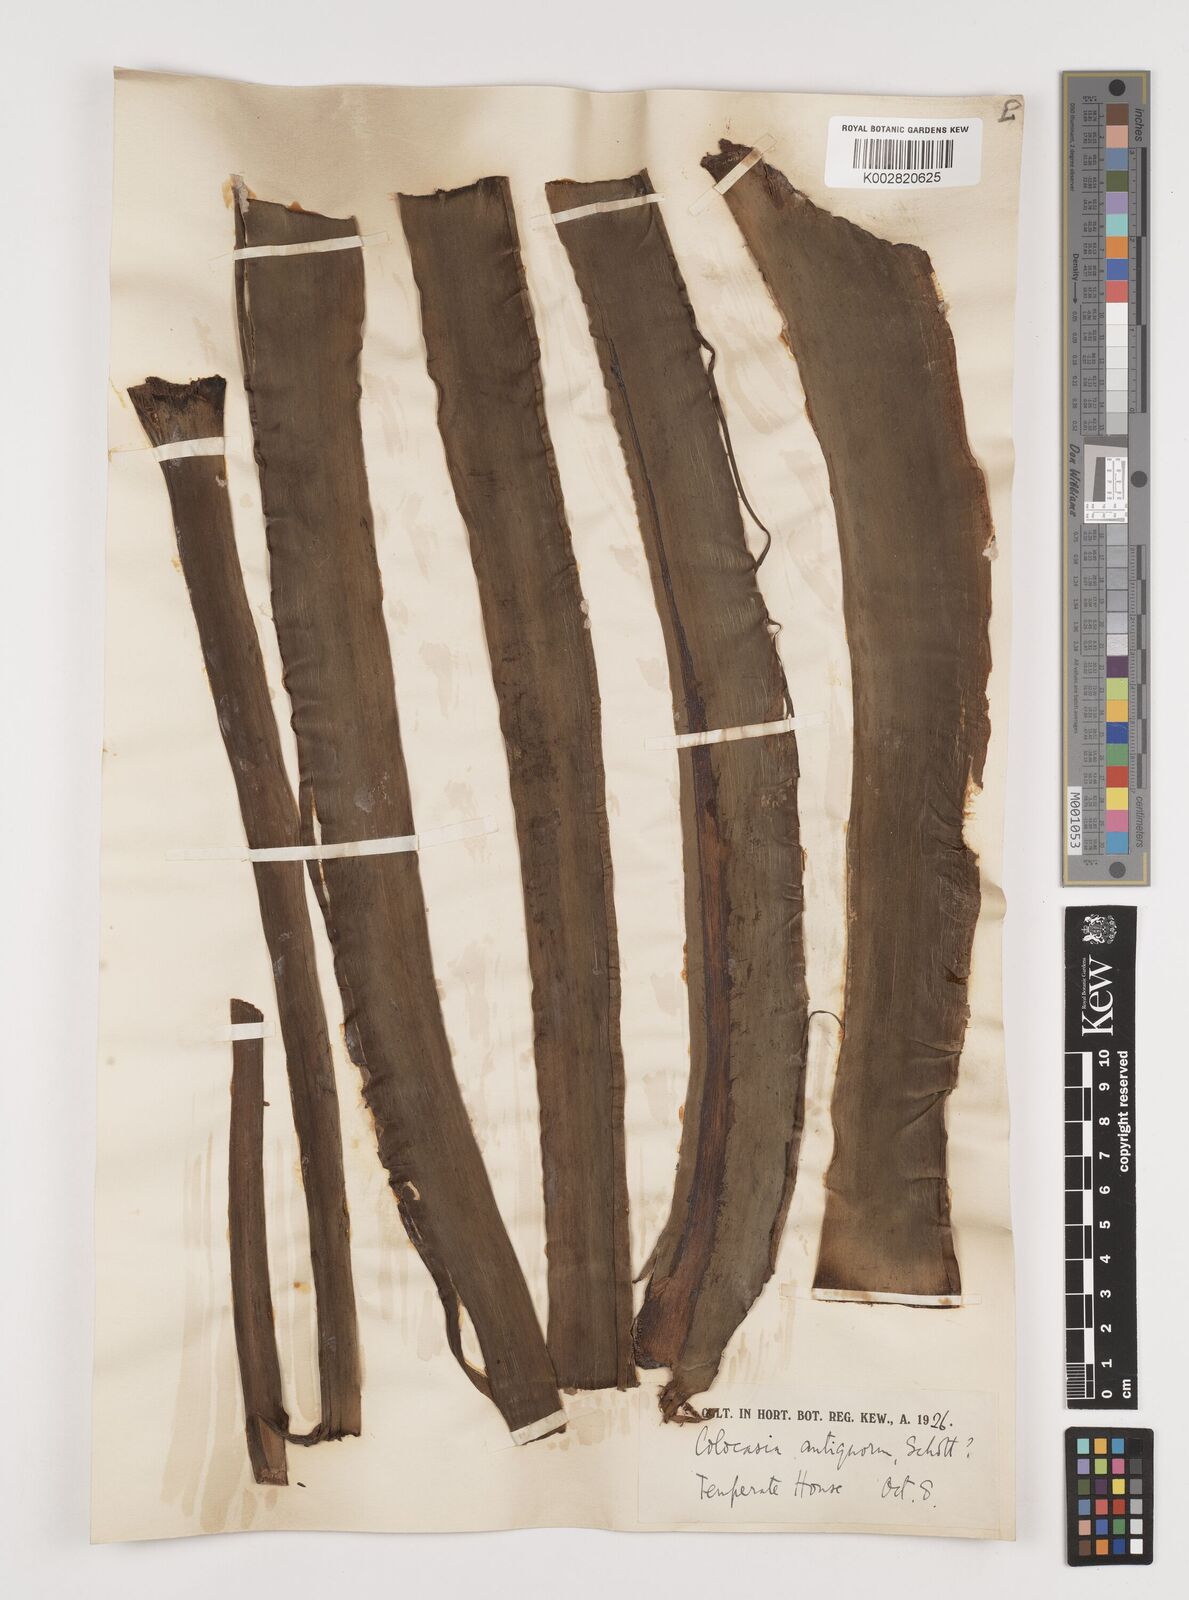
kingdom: Plantae
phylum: Tracheophyta
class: Liliopsida
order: Alismatales
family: Araceae
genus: Leucocasia
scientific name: Leucocasia gigantea
